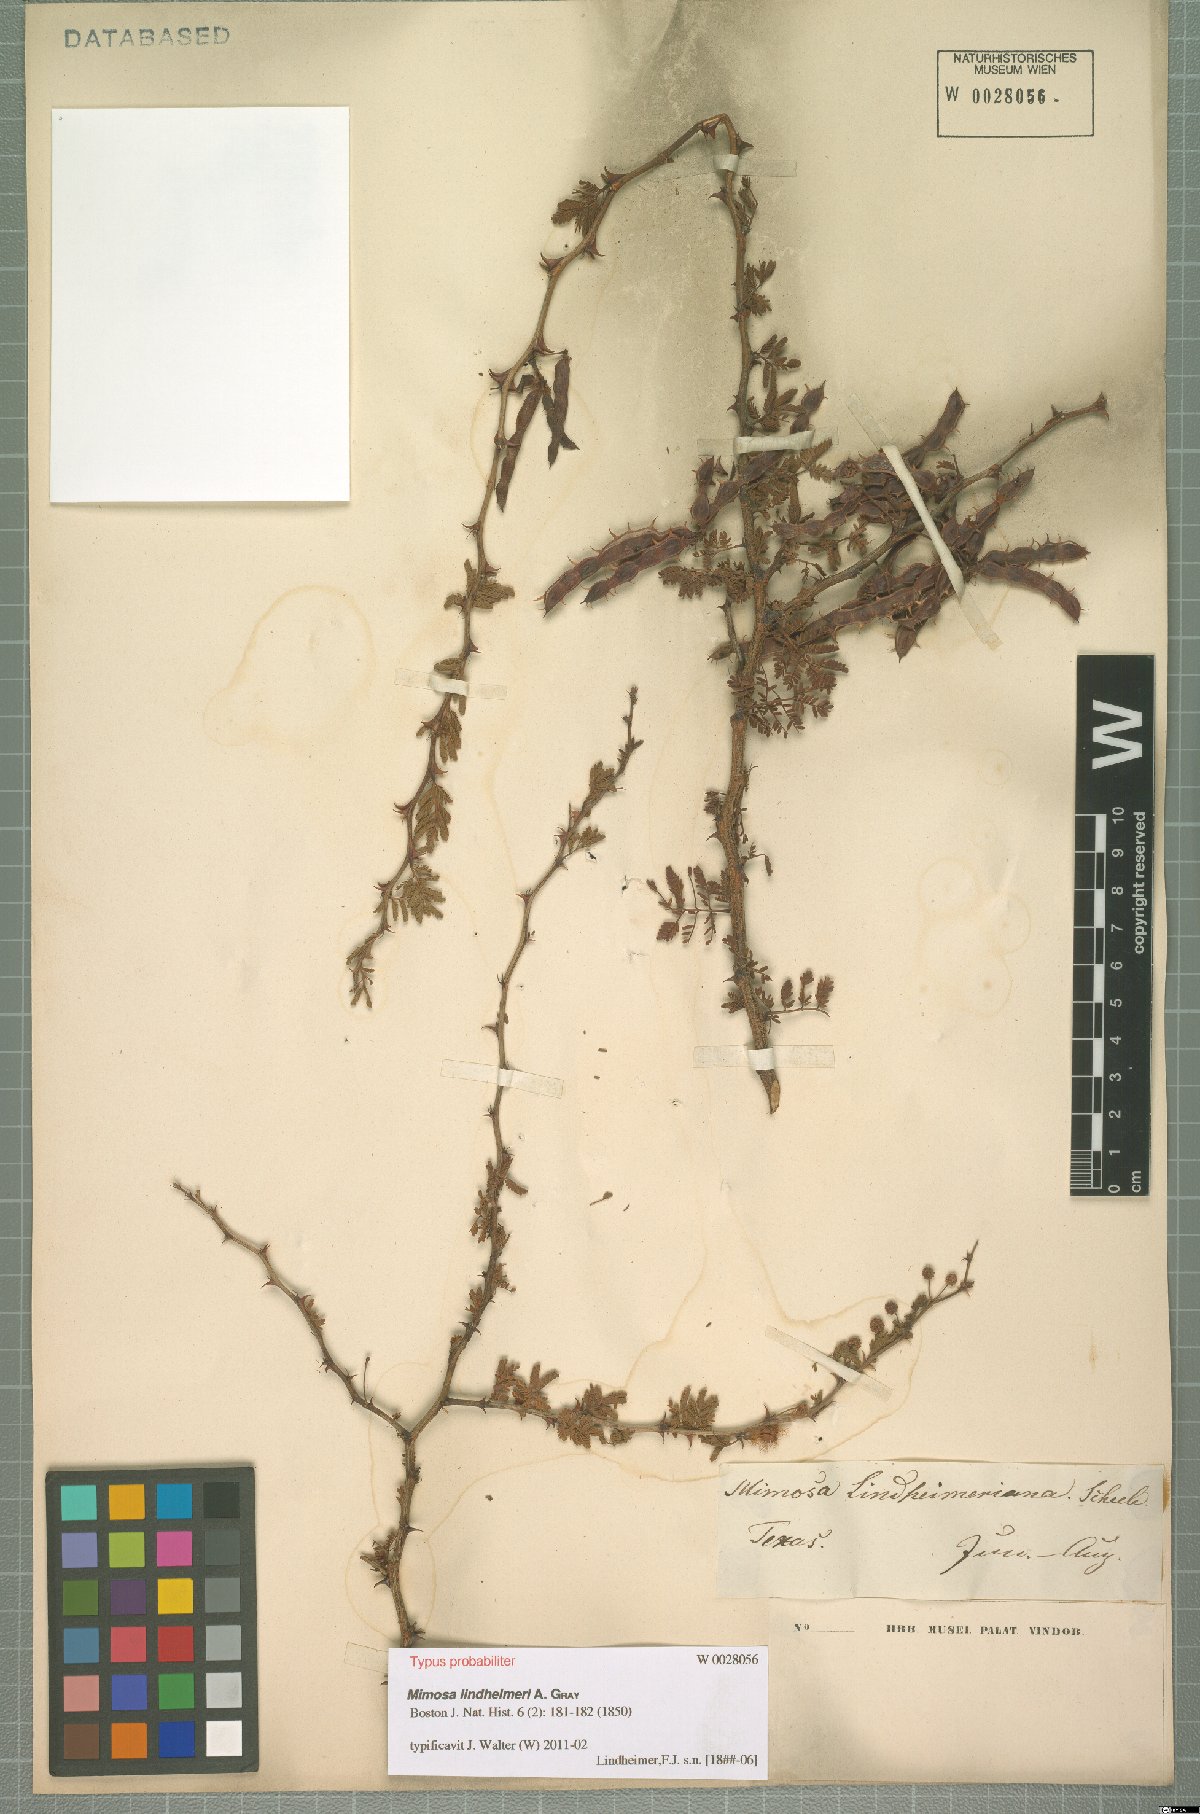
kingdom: Plantae
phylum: Tracheophyta
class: Magnoliopsida
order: Fabales
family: Fabaceae
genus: Mimosa
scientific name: Mimosa biuncifera
